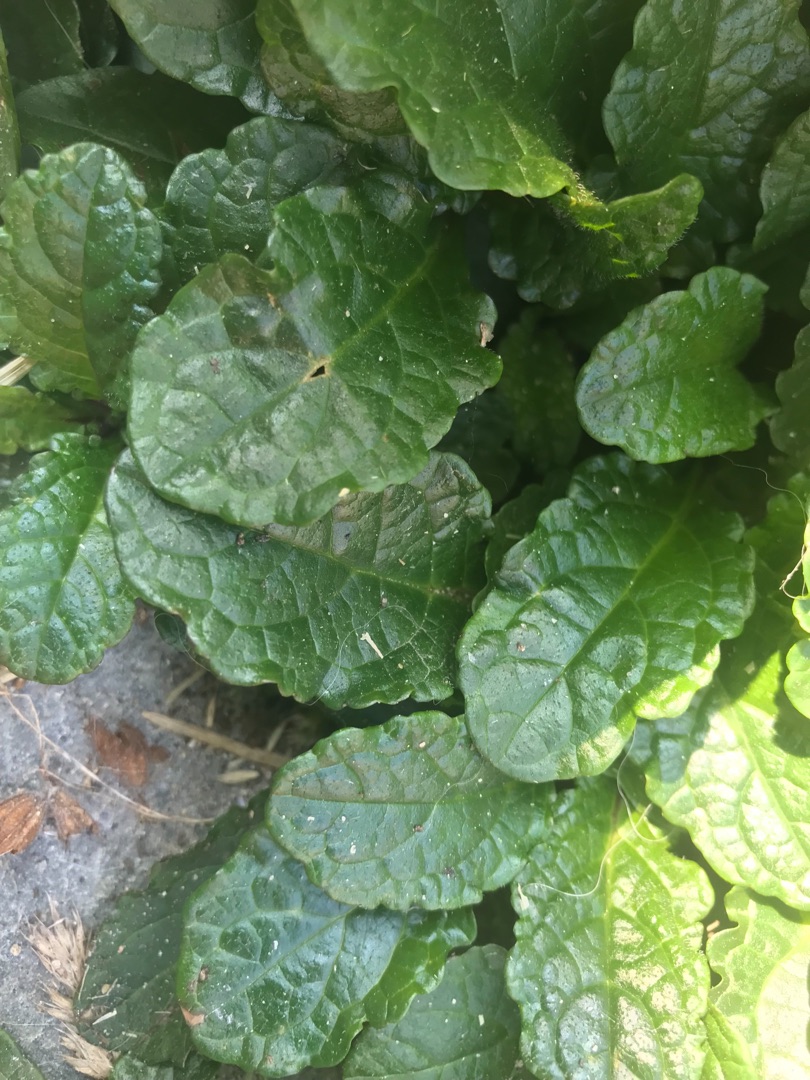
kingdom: Plantae
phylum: Tracheophyta
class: Magnoliopsida
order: Lamiales
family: Lamiaceae
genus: Ajuga
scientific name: Ajuga reptans
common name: Krybende læbeløs
